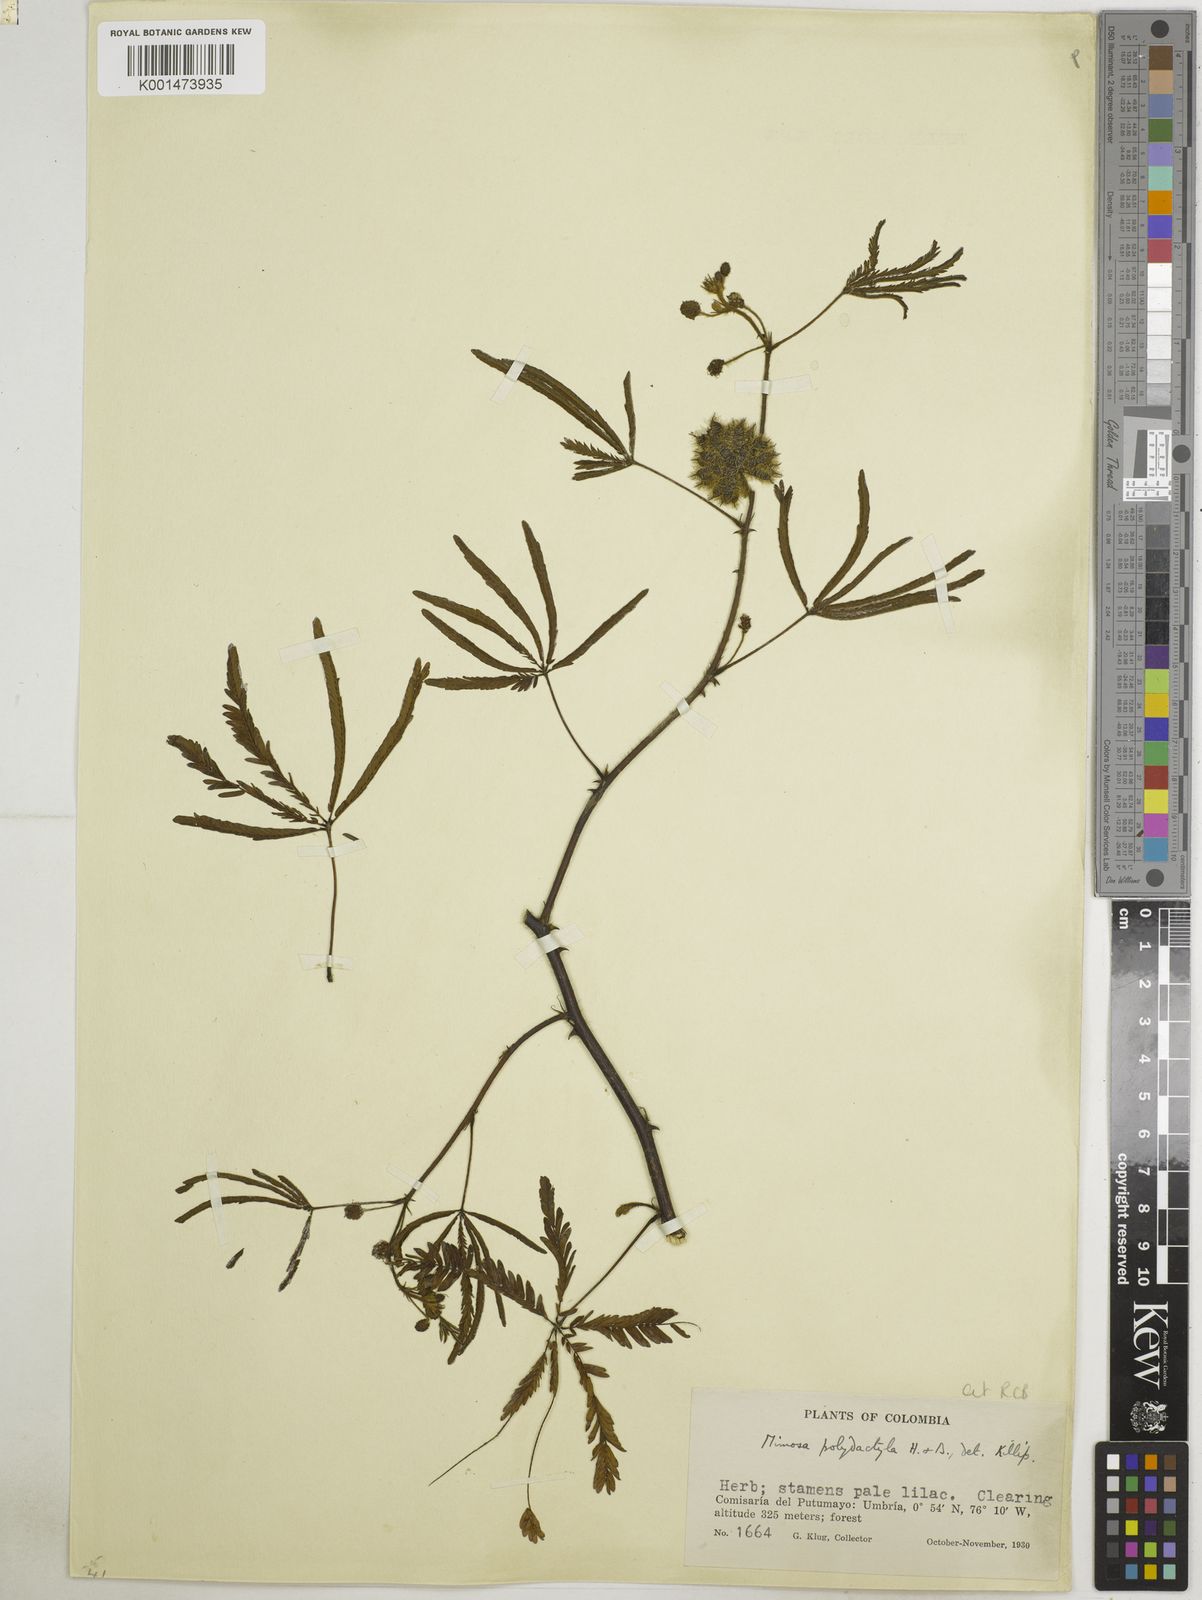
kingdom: Plantae
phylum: Tracheophyta
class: Magnoliopsida
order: Fabales
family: Fabaceae
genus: Mimosa
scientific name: Mimosa polydactyla
